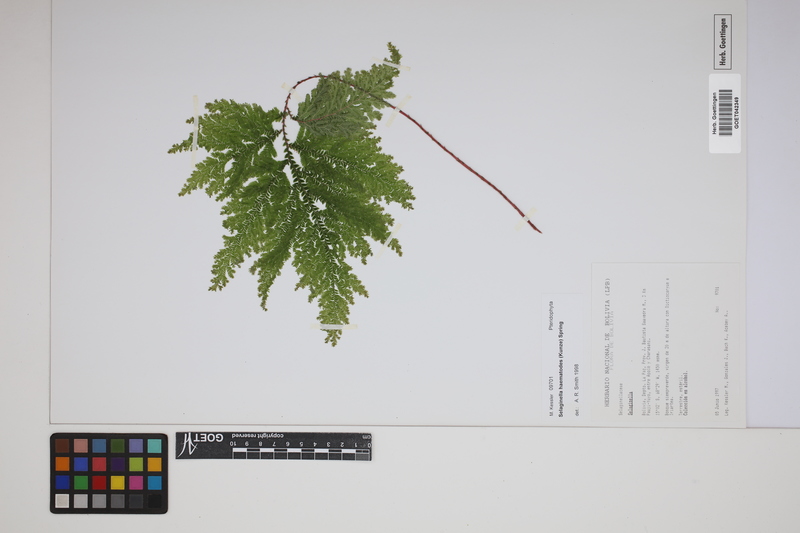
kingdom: Plantae
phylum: Tracheophyta
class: Lycopodiopsida
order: Selaginellales
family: Selaginellaceae
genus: Selaginella
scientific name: Selaginella haematodes
